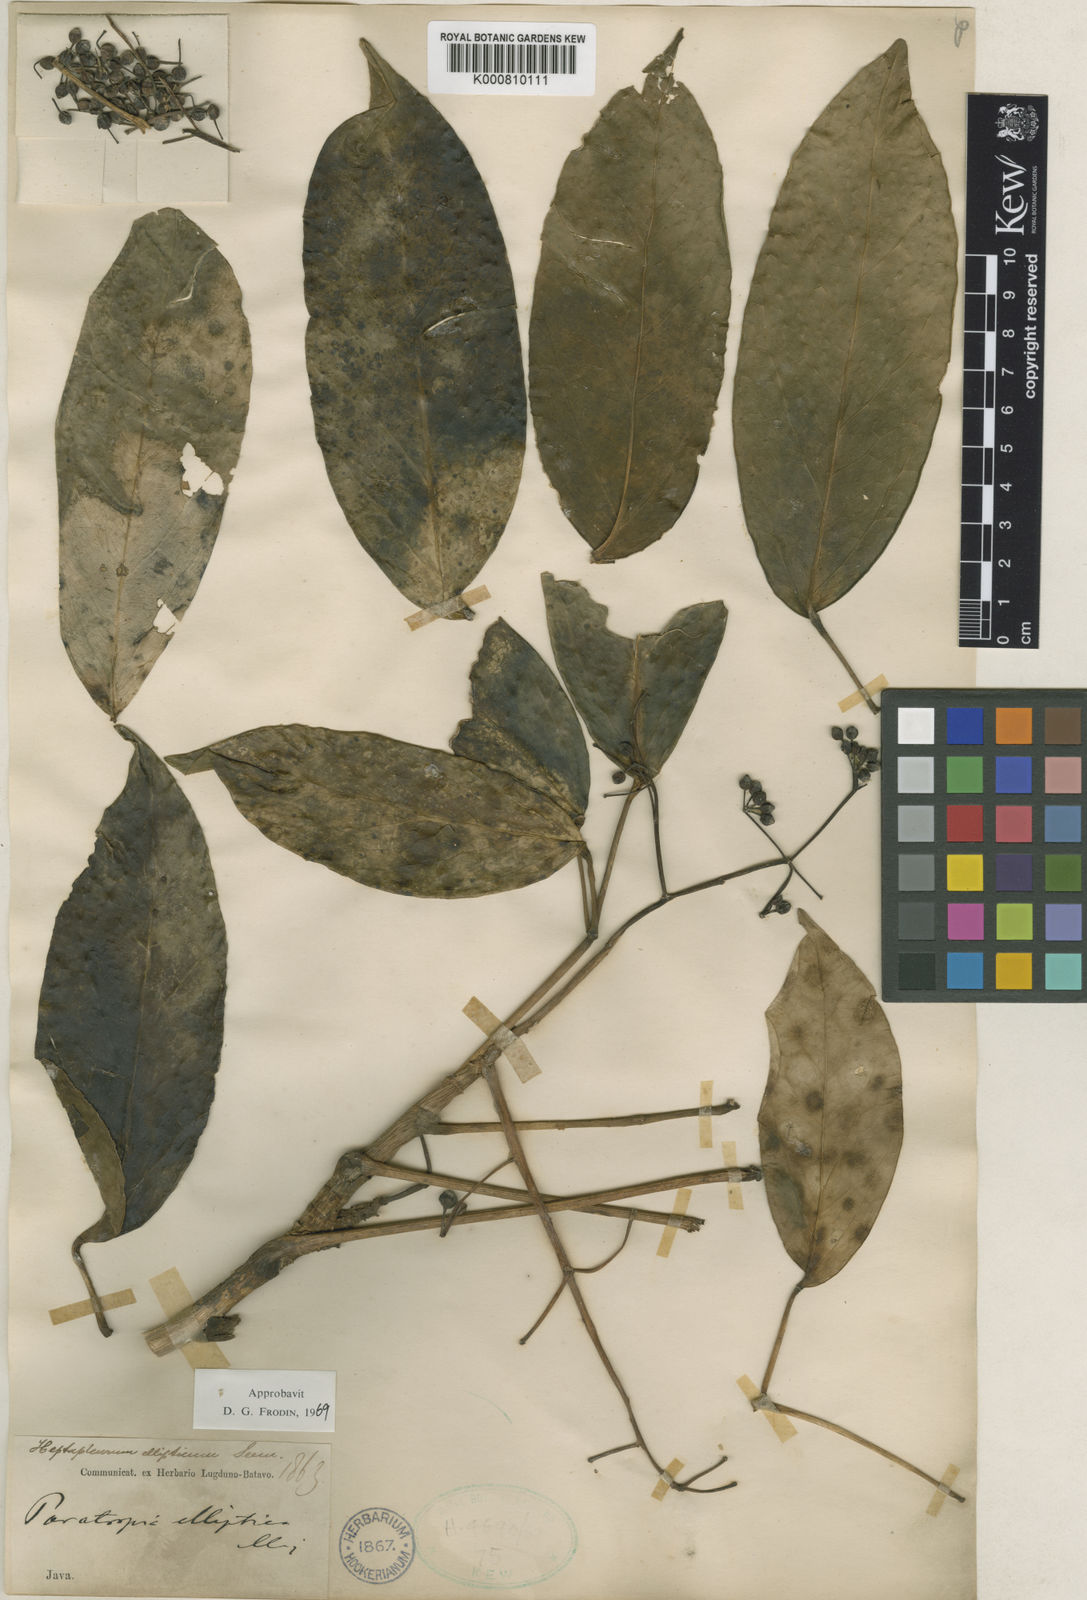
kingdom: Plantae
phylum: Tracheophyta
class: Magnoliopsida
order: Apiales
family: Araliaceae
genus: Heptapleurum
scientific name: Heptapleurum ellipticum
